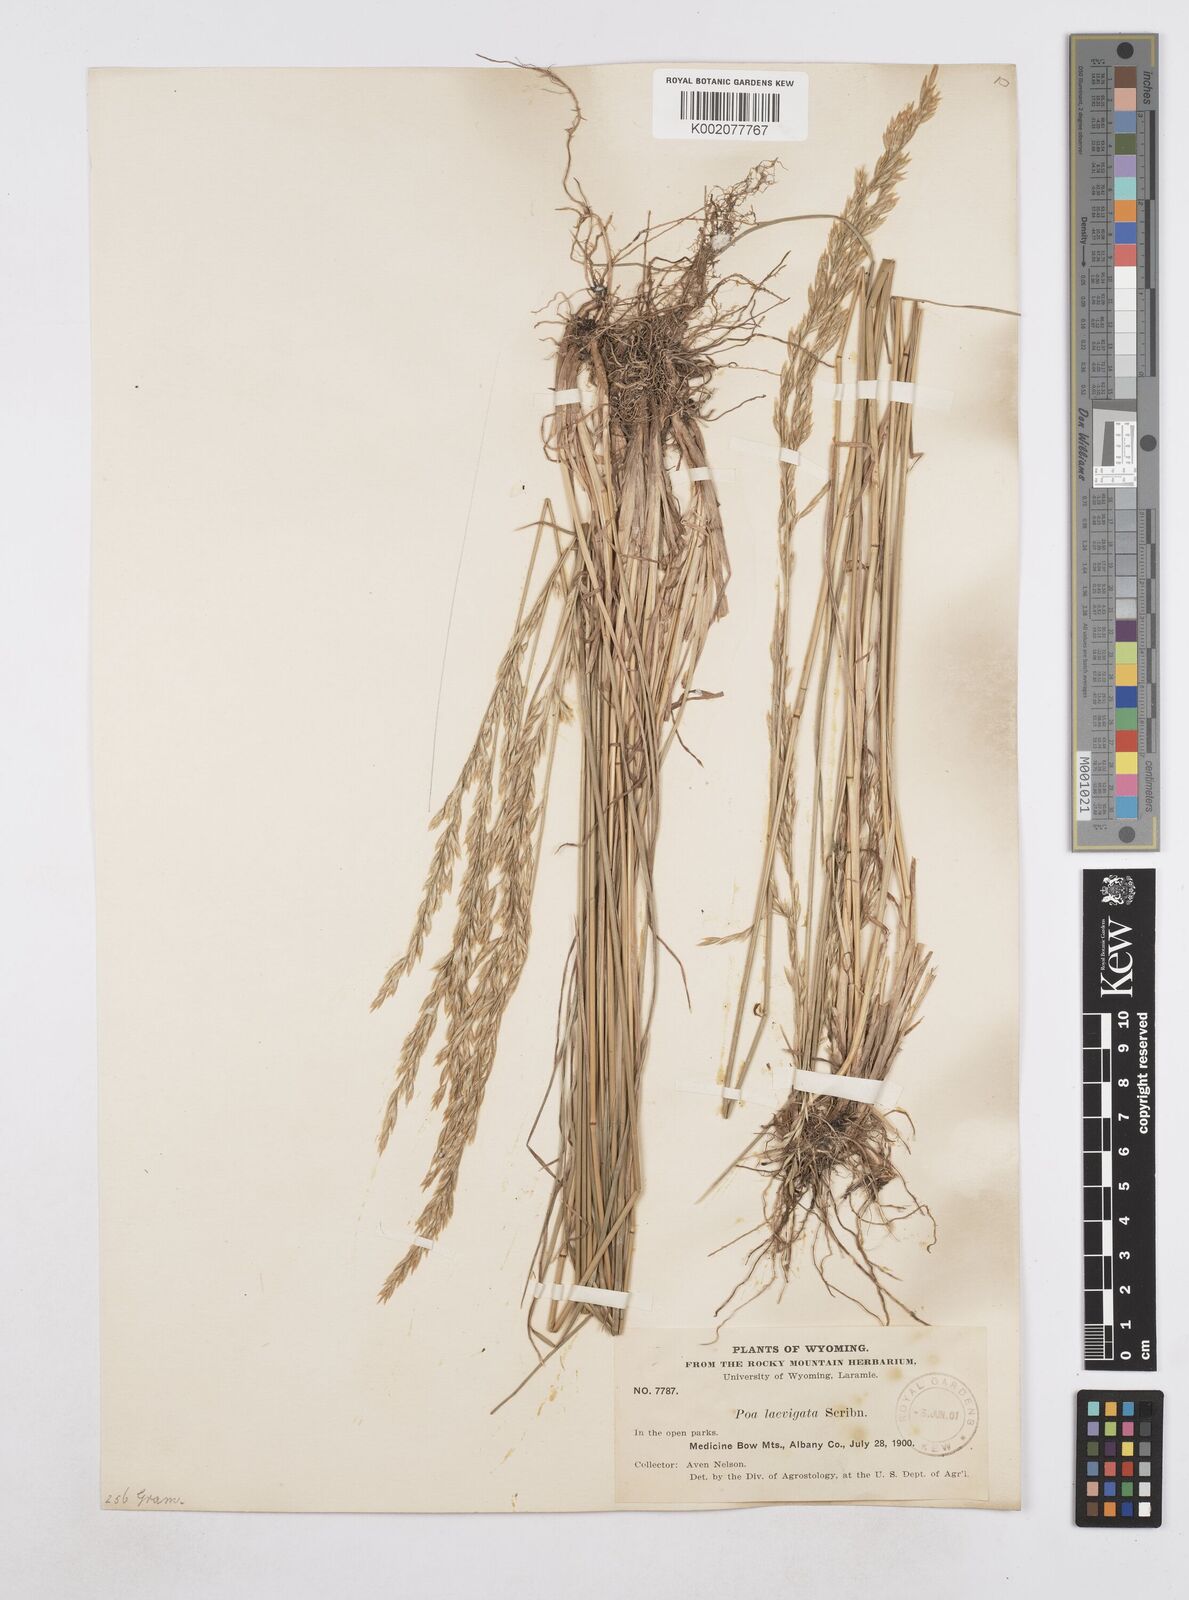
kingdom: Plantae
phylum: Tracheophyta
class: Liliopsida
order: Poales
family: Poaceae
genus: Poa
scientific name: Poa secunda
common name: Sandberg bluegrass
